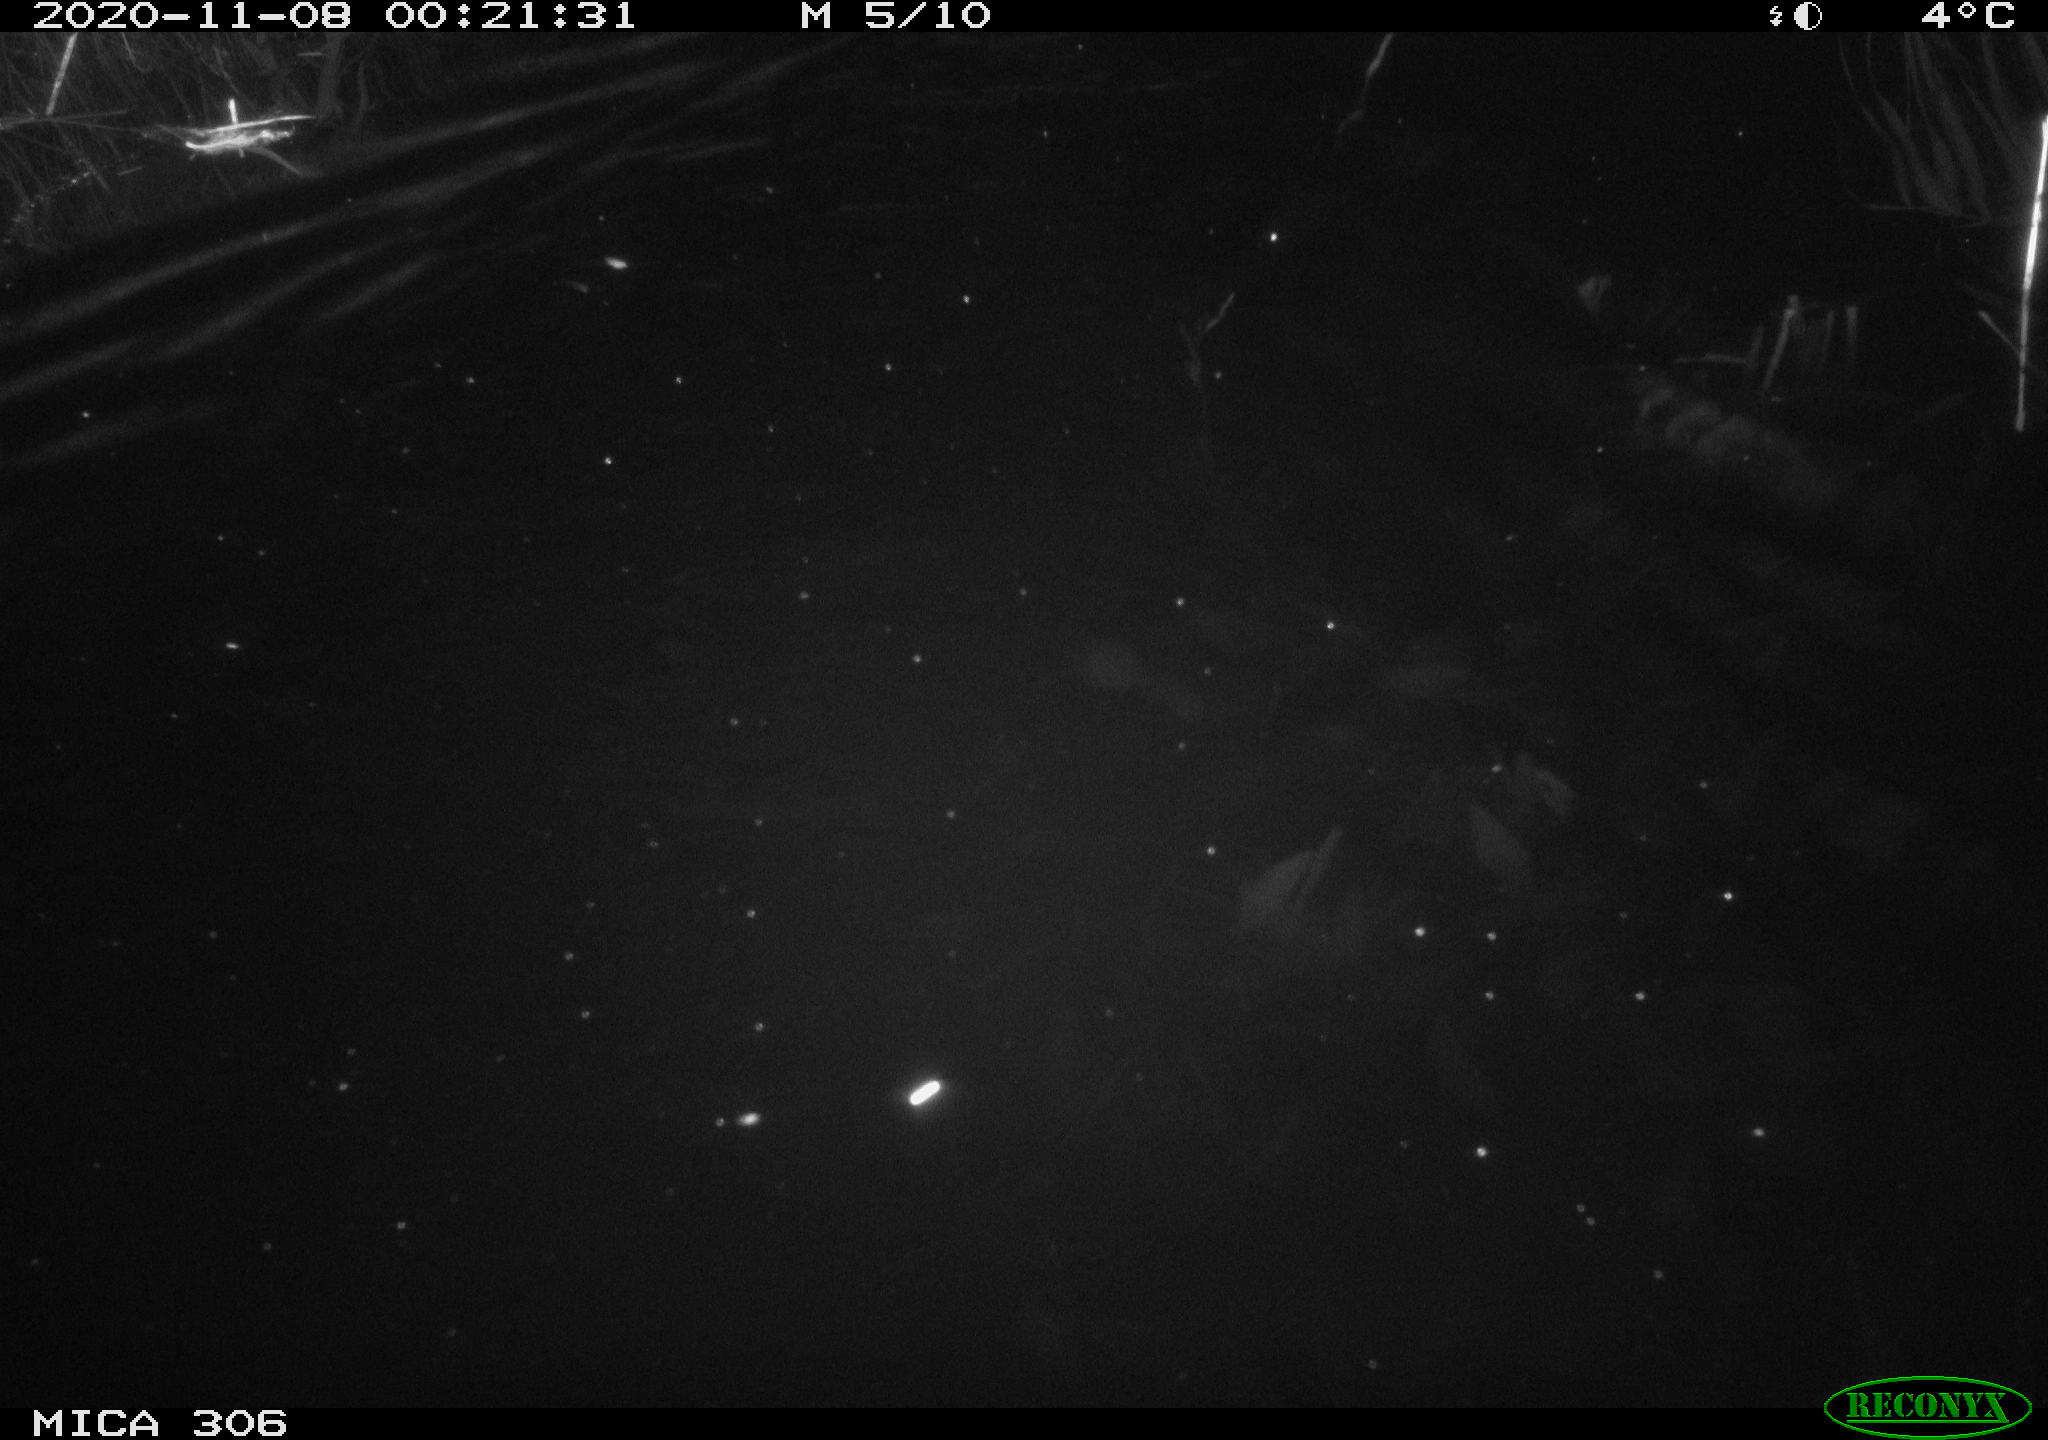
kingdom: Animalia
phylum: Chordata
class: Mammalia
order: Rodentia
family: Cricetidae
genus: Ondatra
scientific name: Ondatra zibethicus
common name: Muskrat
